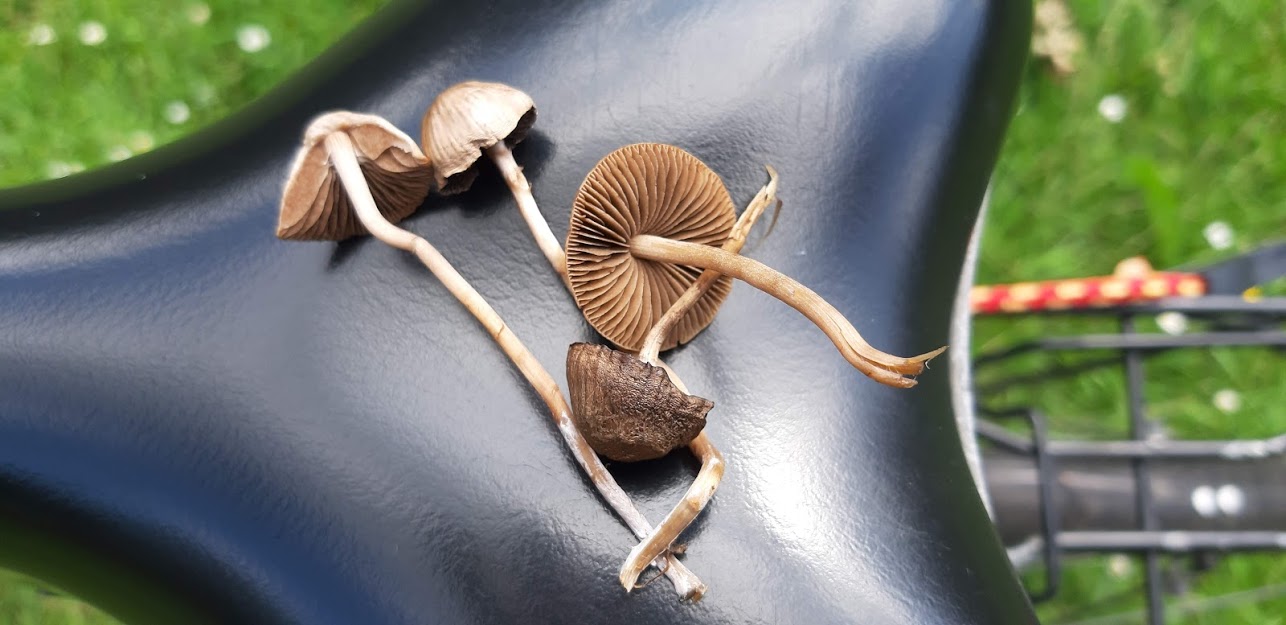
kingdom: Fungi
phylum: Basidiomycota
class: Agaricomycetes
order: Agaricales
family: Bolbitiaceae
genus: Panaeolina
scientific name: Panaeolina foenisecii
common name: høslætsvamp
